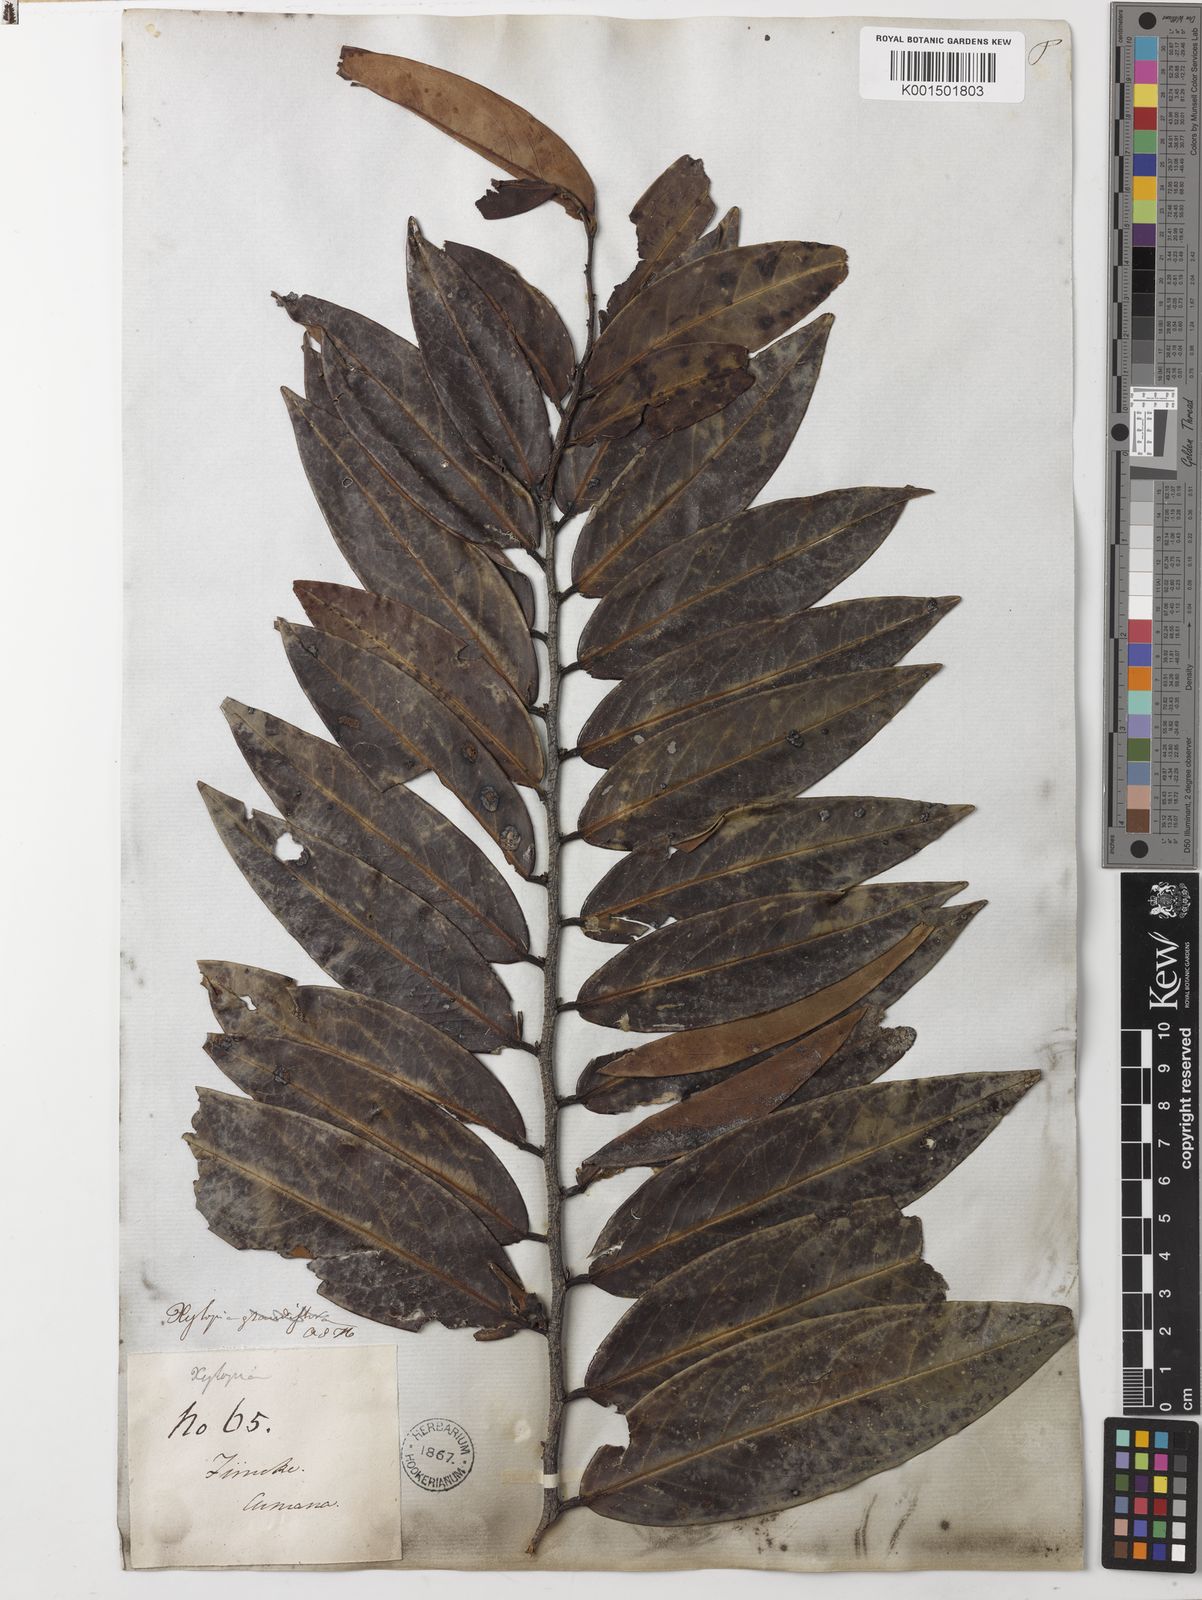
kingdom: Plantae
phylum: Tracheophyta
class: Magnoliopsida
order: Magnoliales
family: Annonaceae
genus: Xylopia
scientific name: Xylopia aromatica
